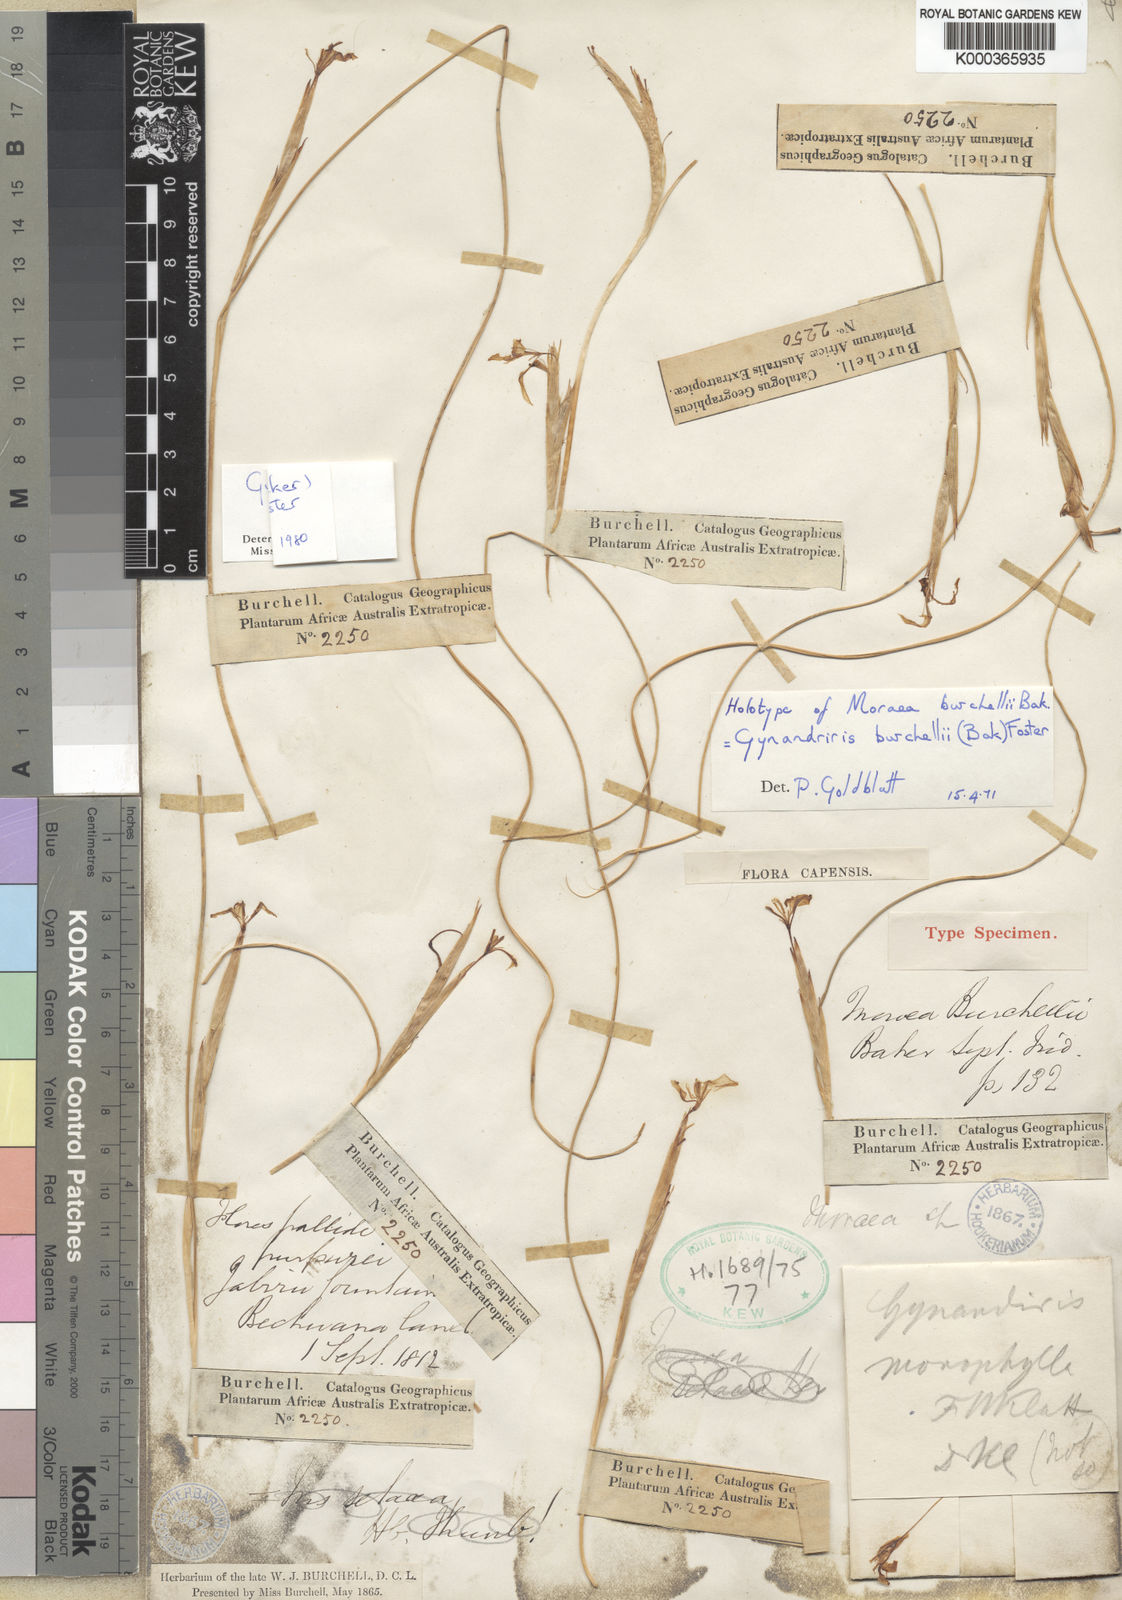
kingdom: Plantae
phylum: Tracheophyta
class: Liliopsida
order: Asparagales
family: Iridaceae
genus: Moraea
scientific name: Moraea simulans
